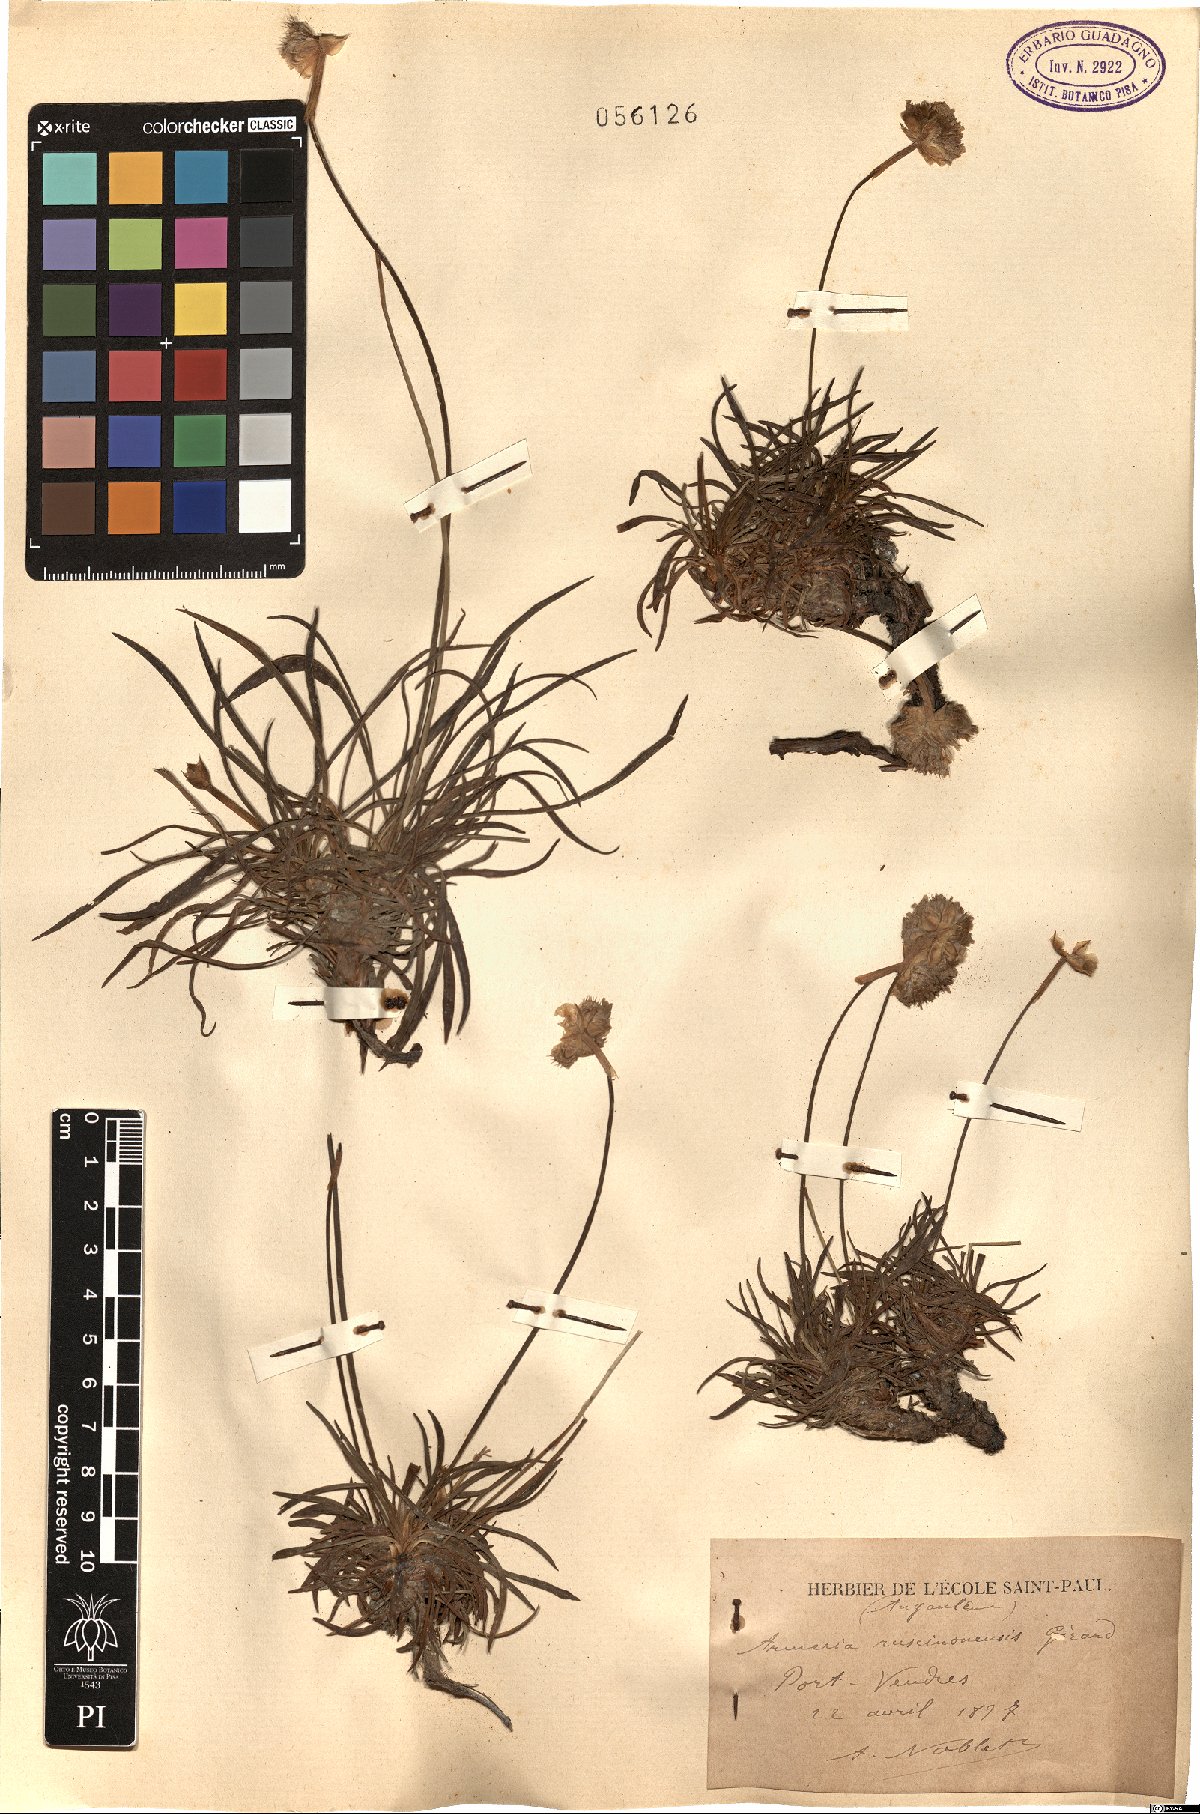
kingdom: Plantae
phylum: Tracheophyta
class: Magnoliopsida
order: Caryophyllales
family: Plumbaginaceae
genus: Armeria
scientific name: Armeria ruscinonensis
